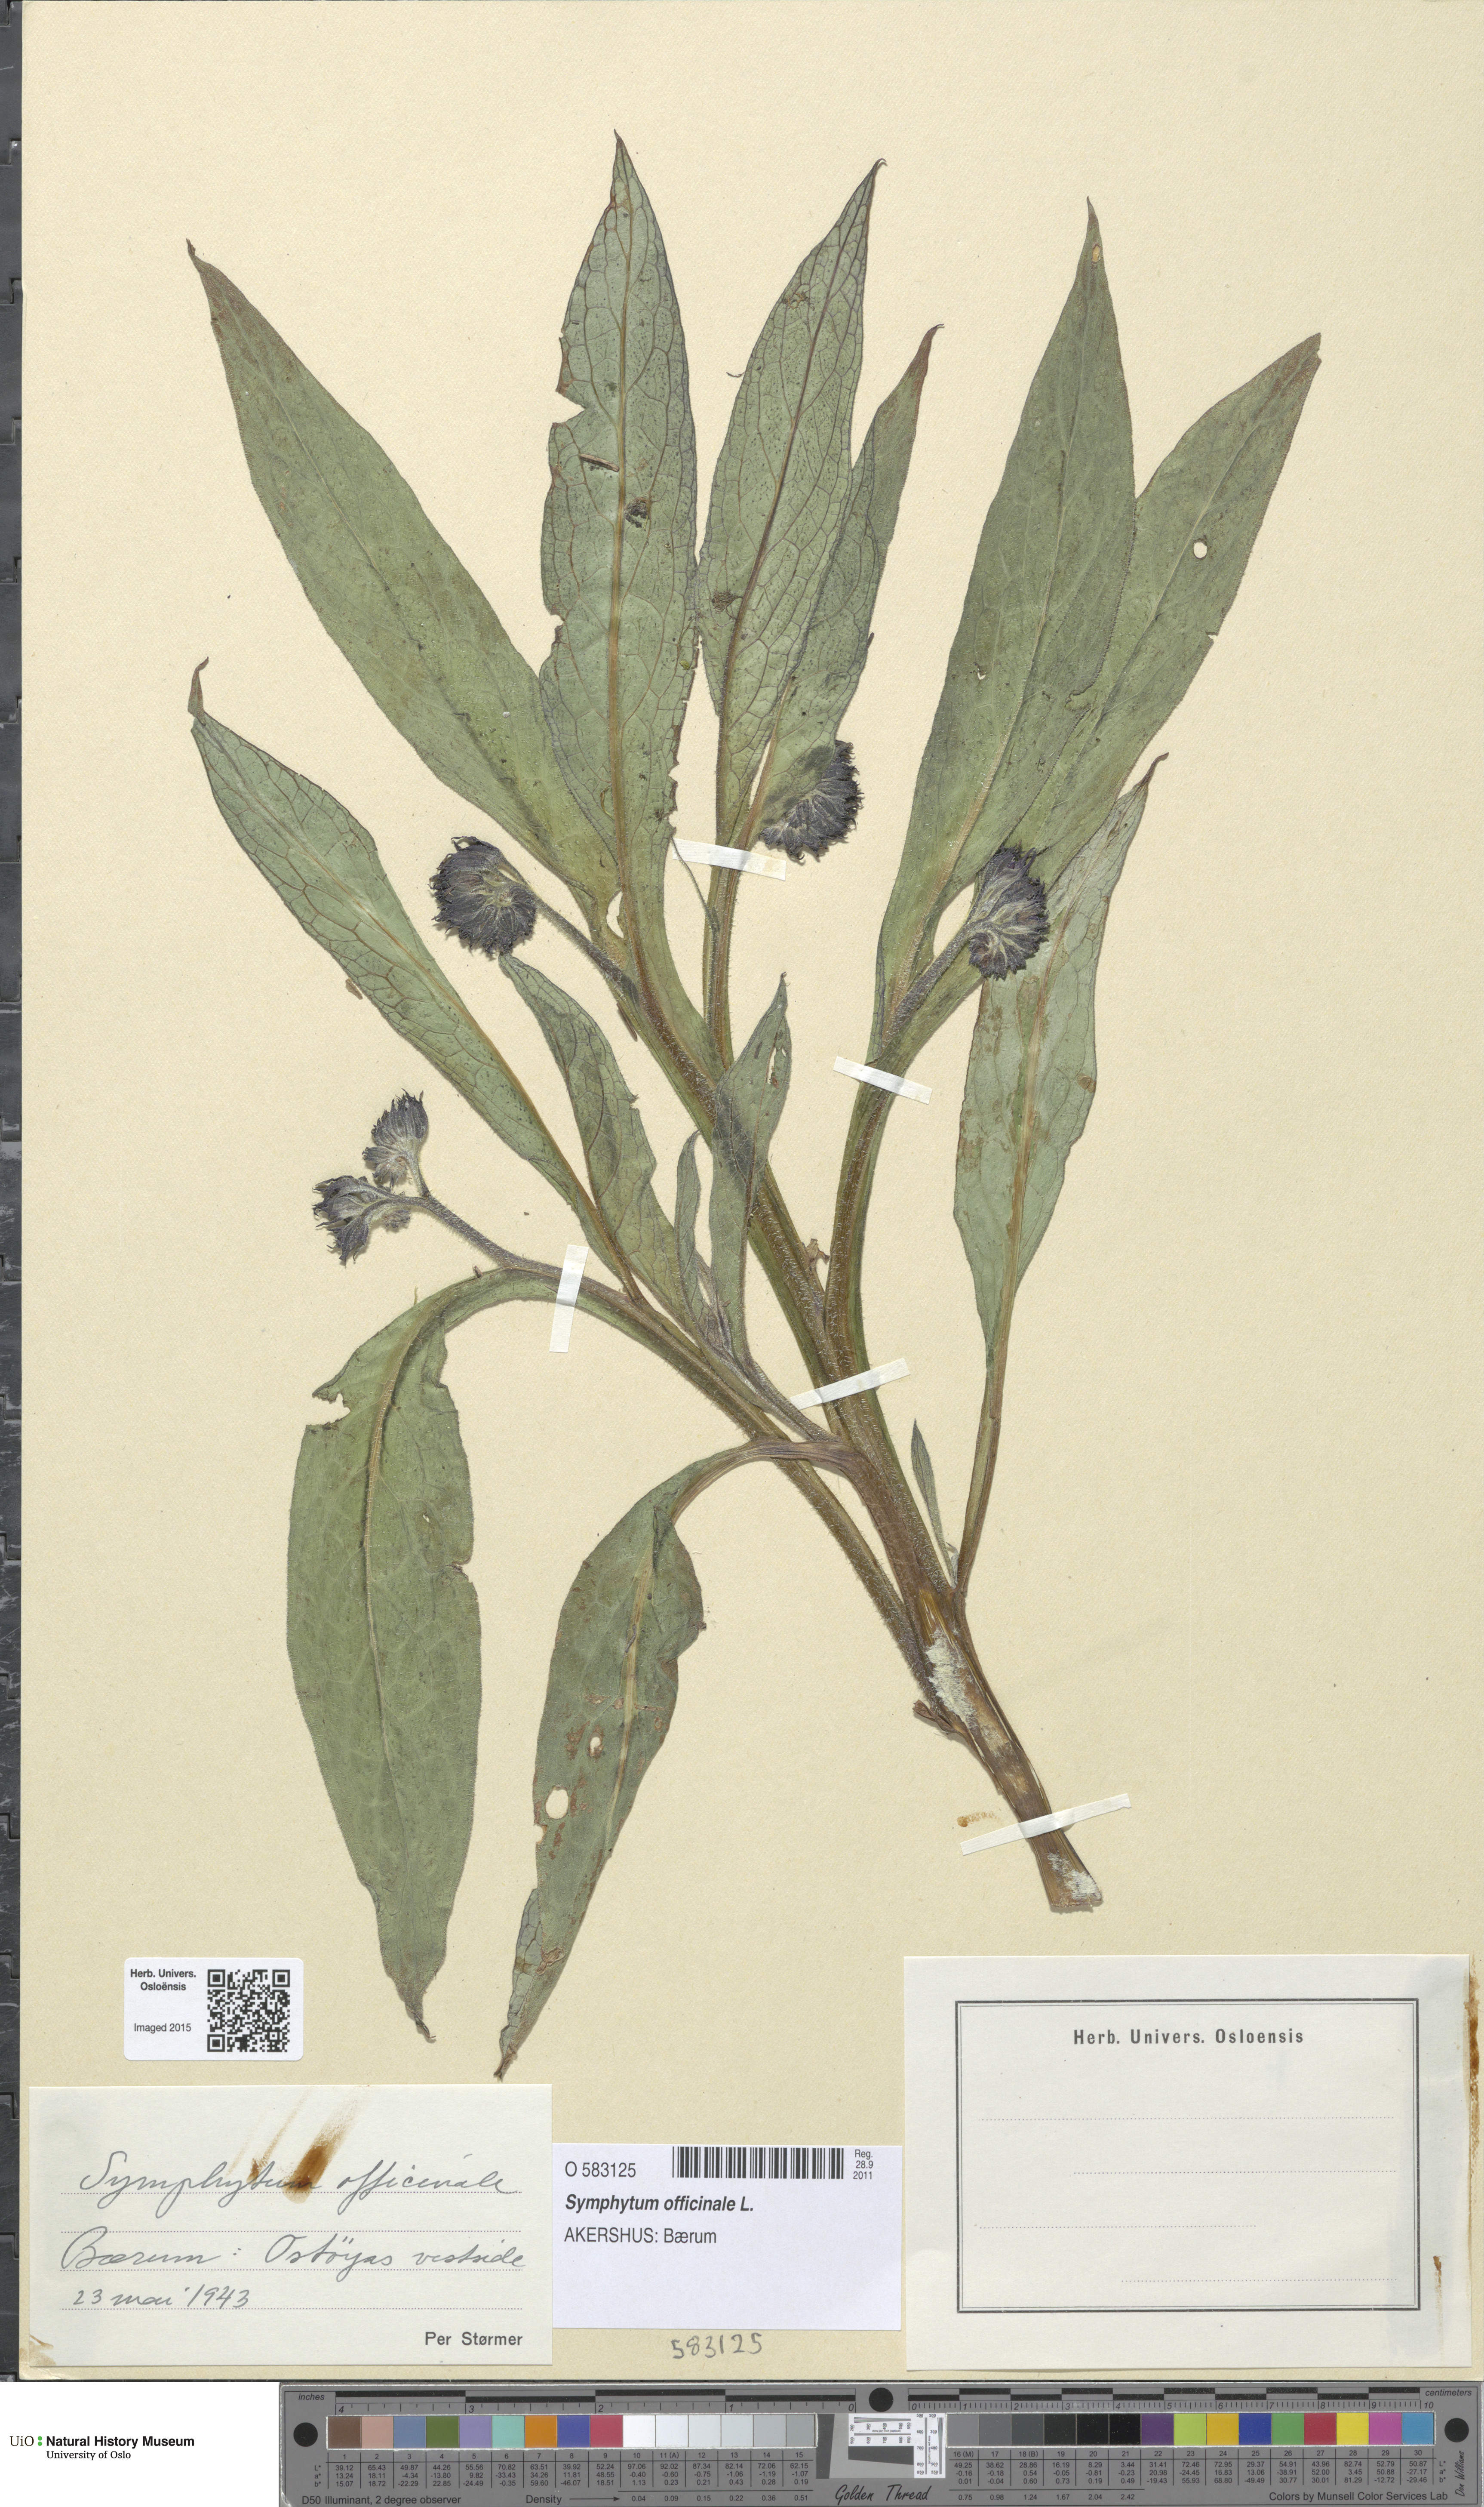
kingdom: Plantae
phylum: Tracheophyta
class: Magnoliopsida
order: Boraginales
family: Boraginaceae
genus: Symphytum
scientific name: Symphytum officinale
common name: Common comfrey
